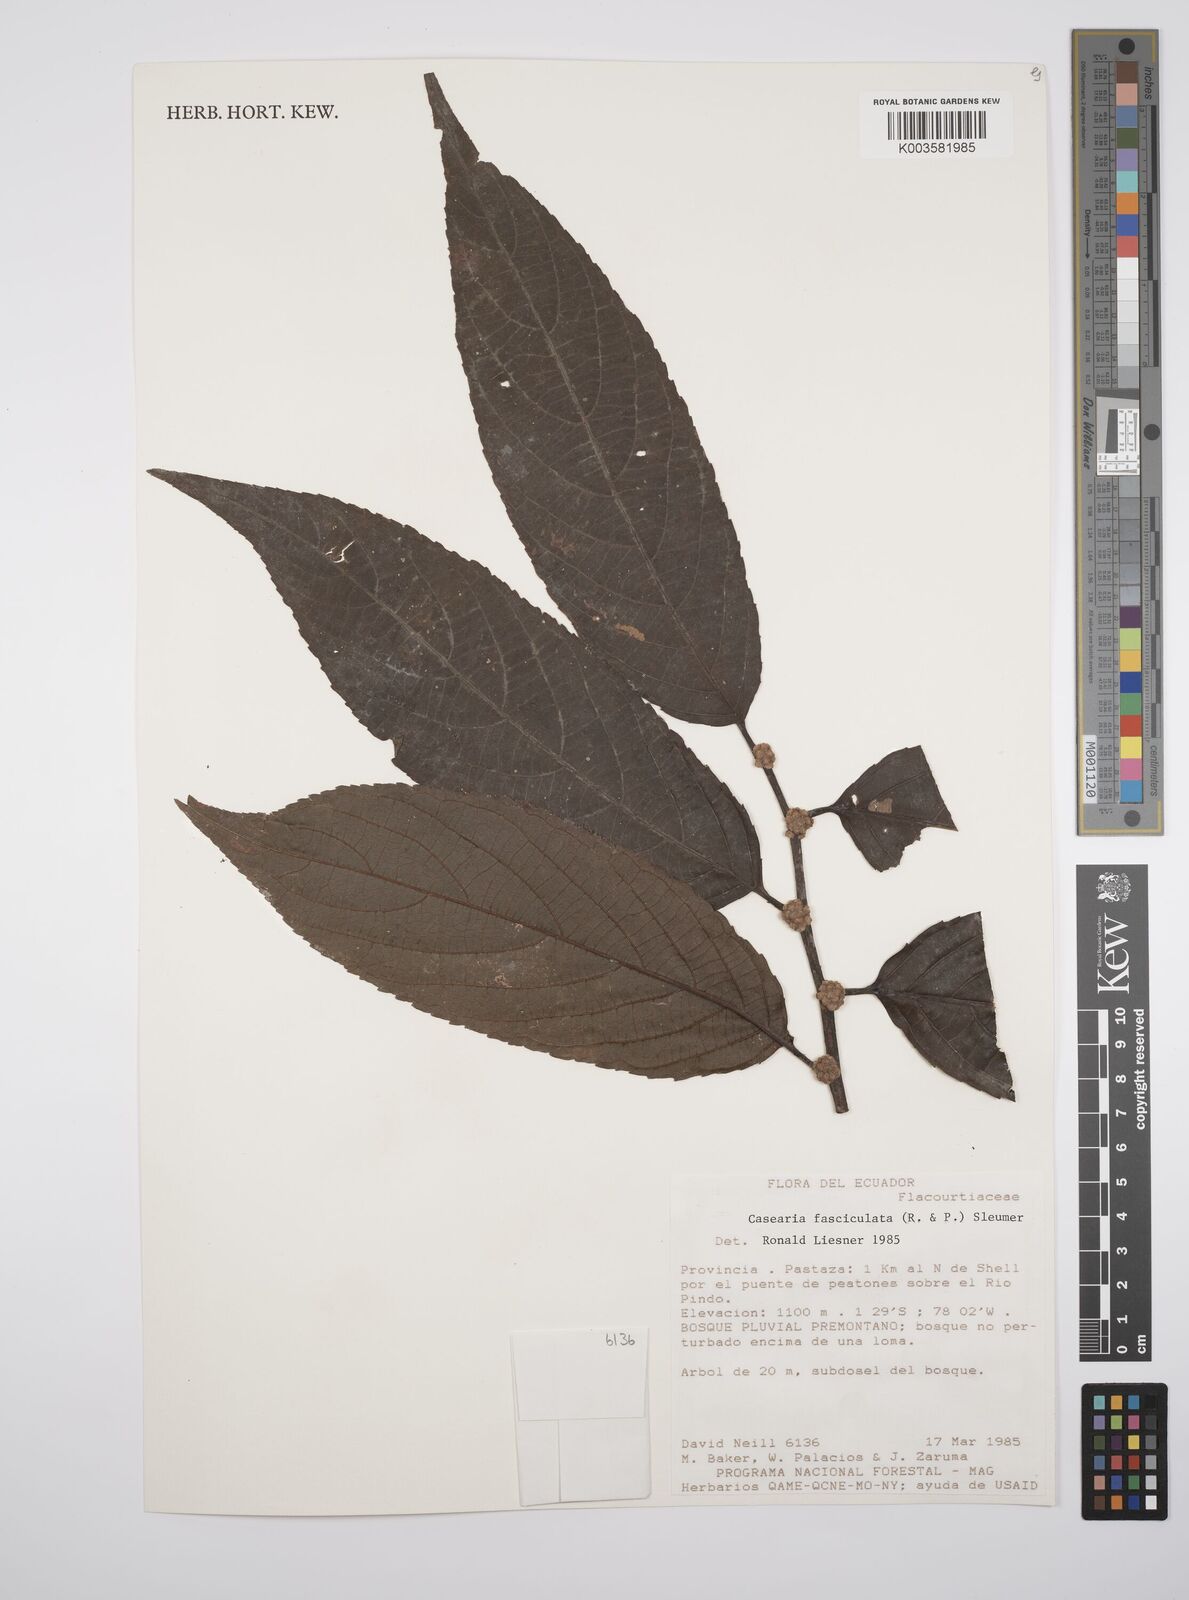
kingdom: Plantae
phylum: Tracheophyta
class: Magnoliopsida
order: Malpighiales
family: Salicaceae
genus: Casearia
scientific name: Casearia
